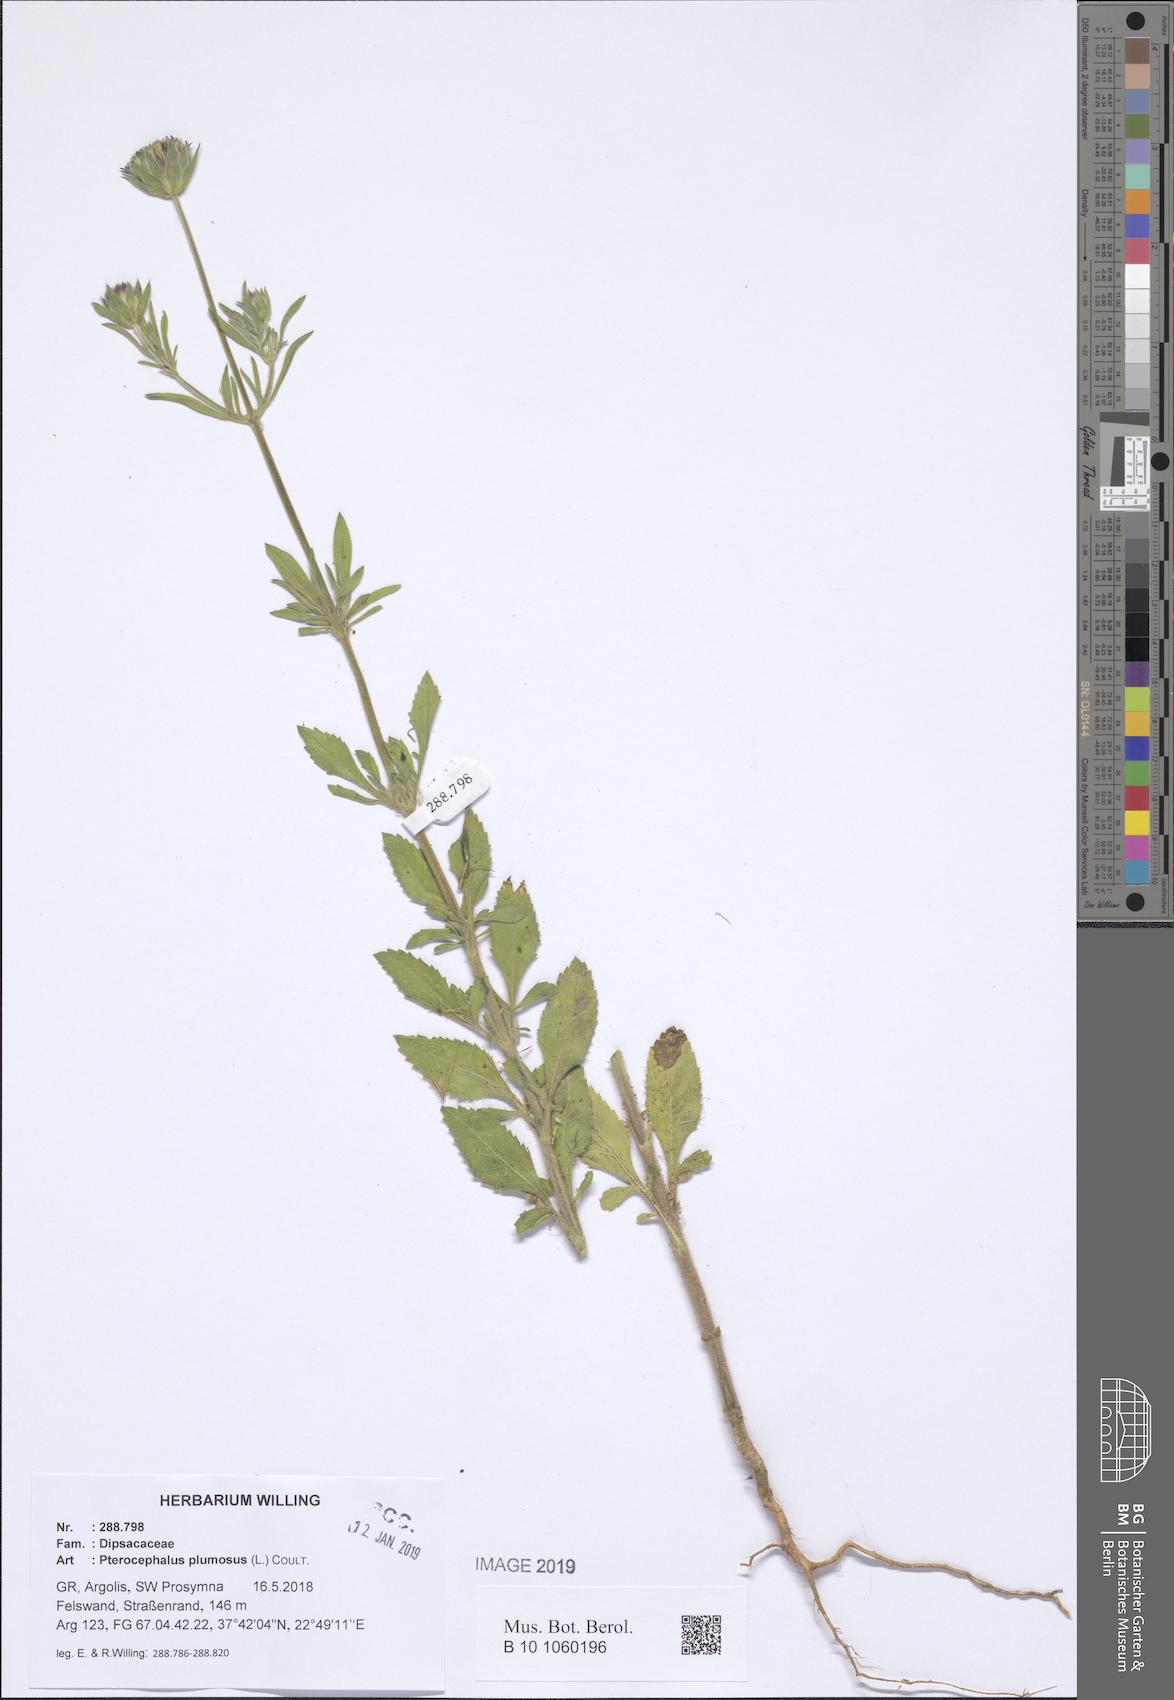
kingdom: Plantae
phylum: Tracheophyta
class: Magnoliopsida
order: Dipsacales
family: Caprifoliaceae
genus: Pterocephalus
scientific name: Pterocephalus plumosus
